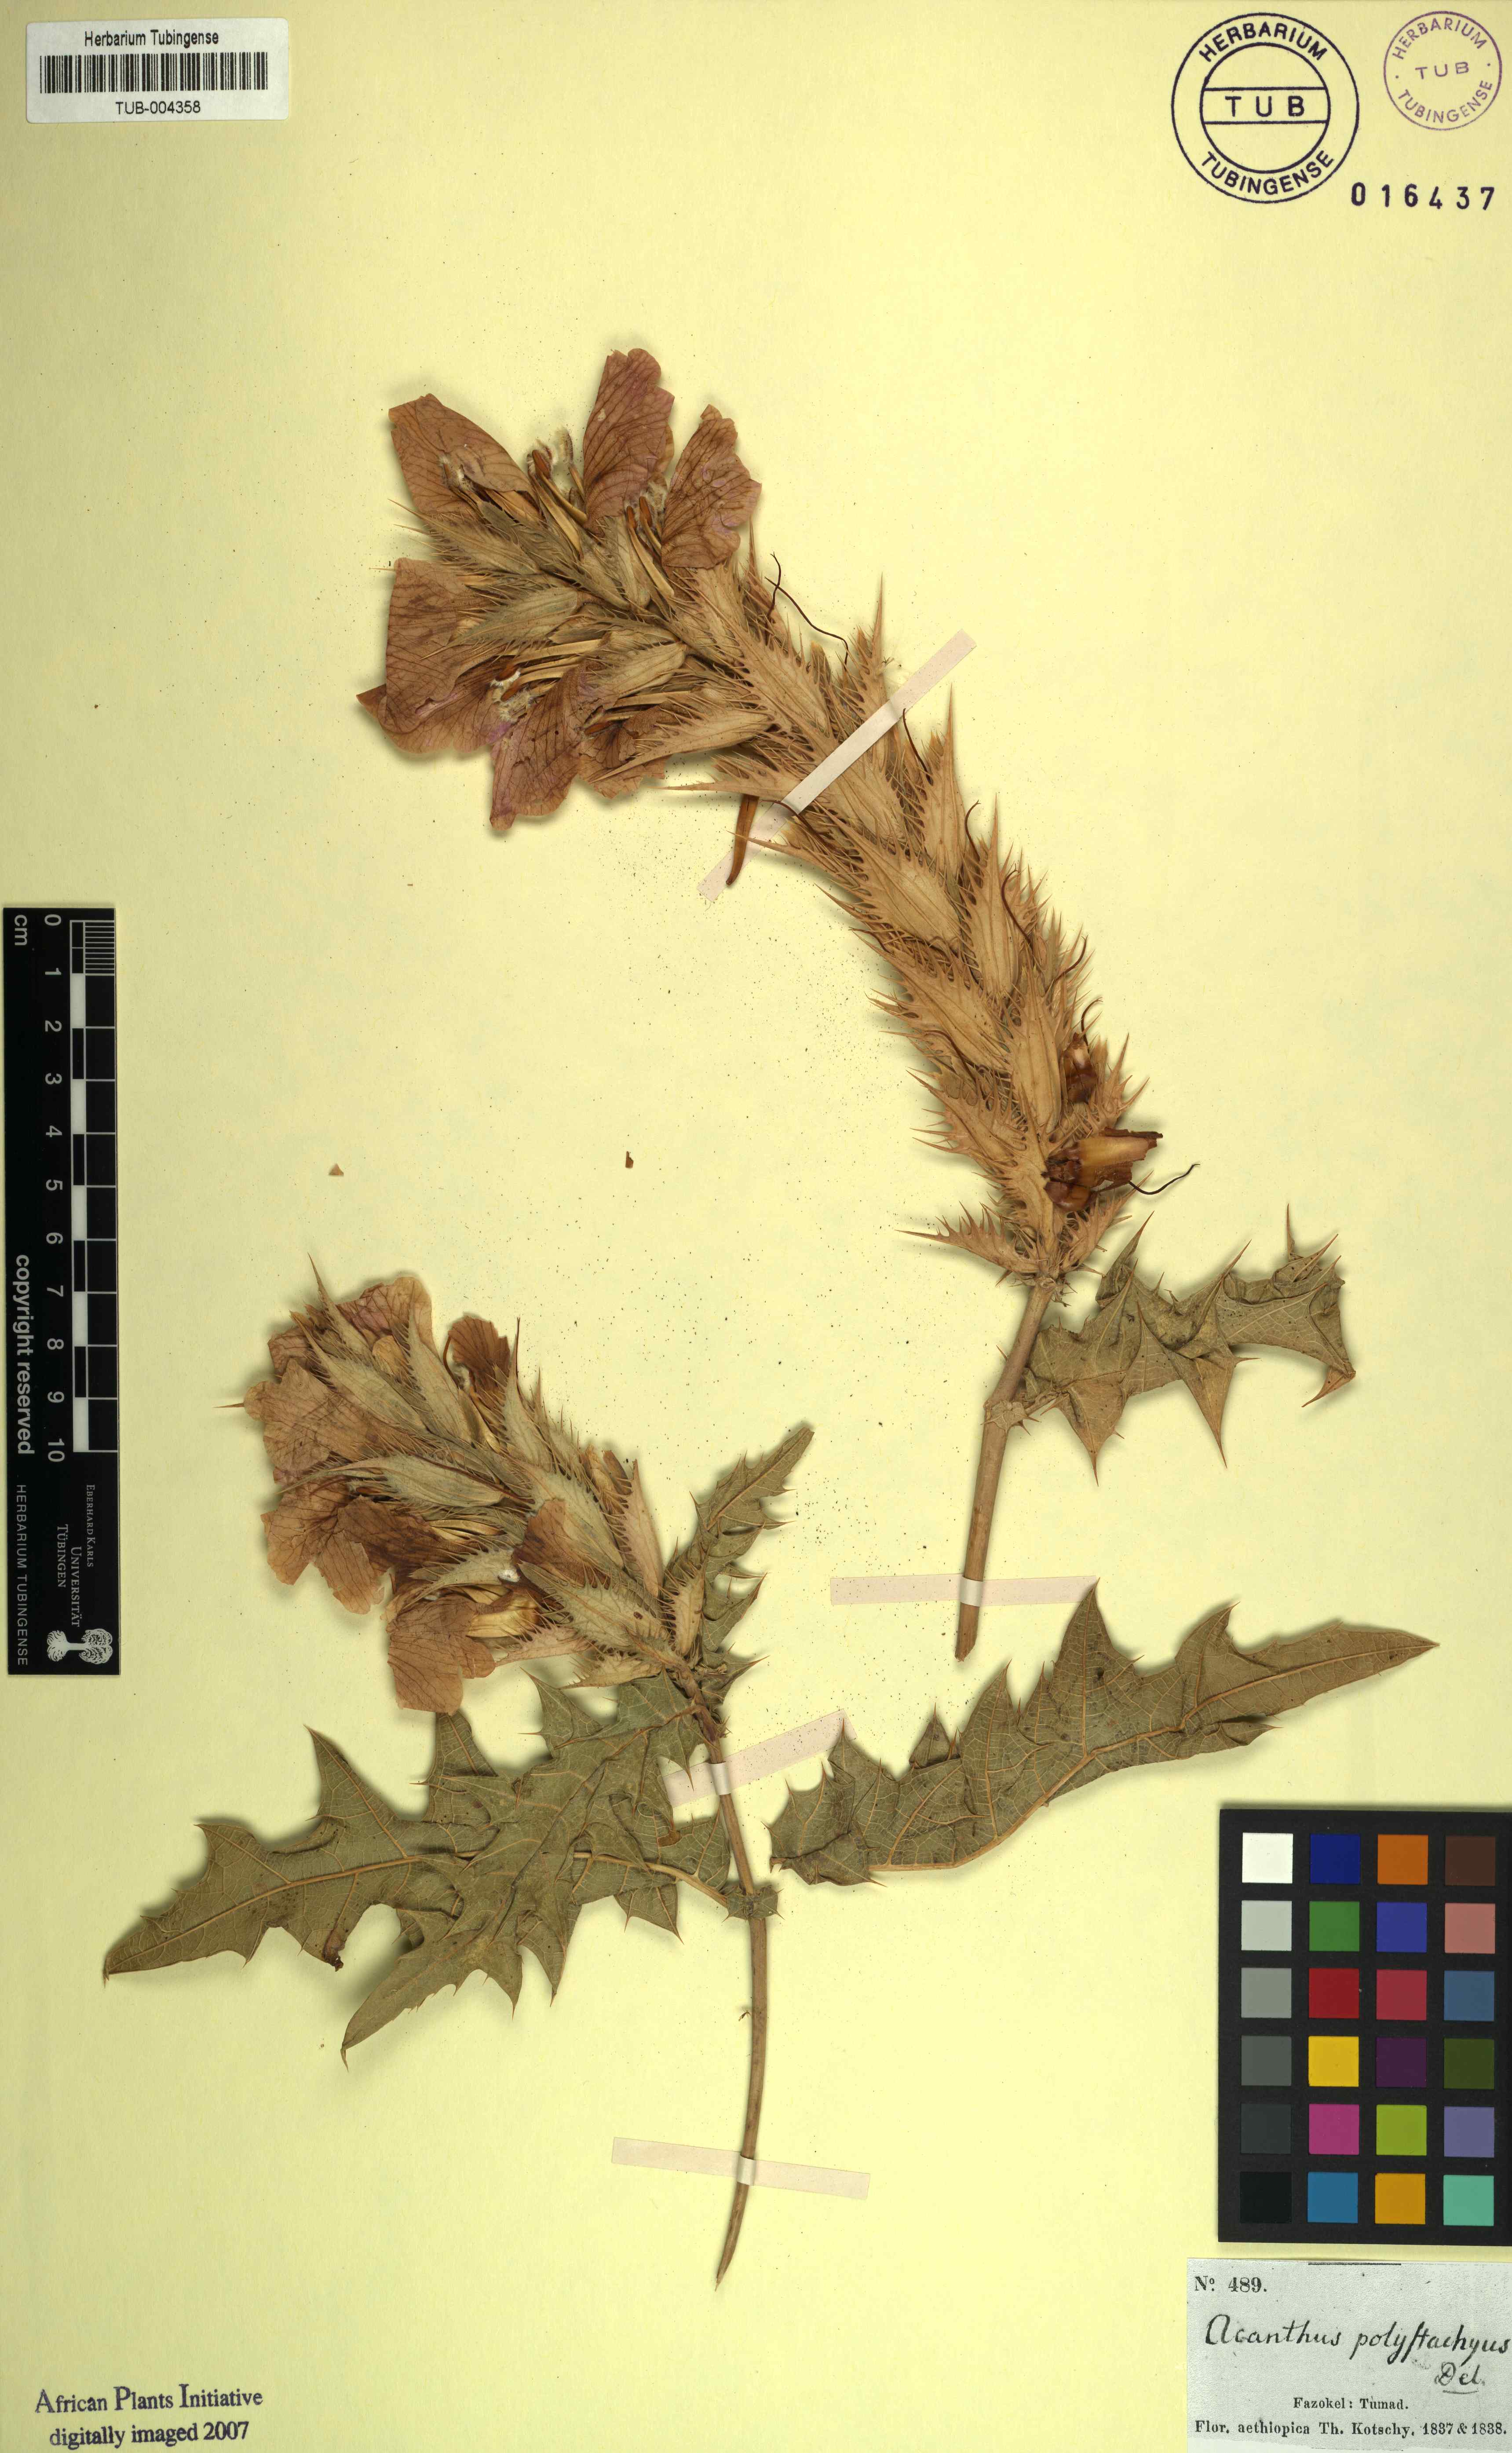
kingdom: Plantae
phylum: Tracheophyta
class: Magnoliopsida
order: Lamiales
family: Acanthaceae
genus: Acanthus
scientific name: Acanthus polystachyus
